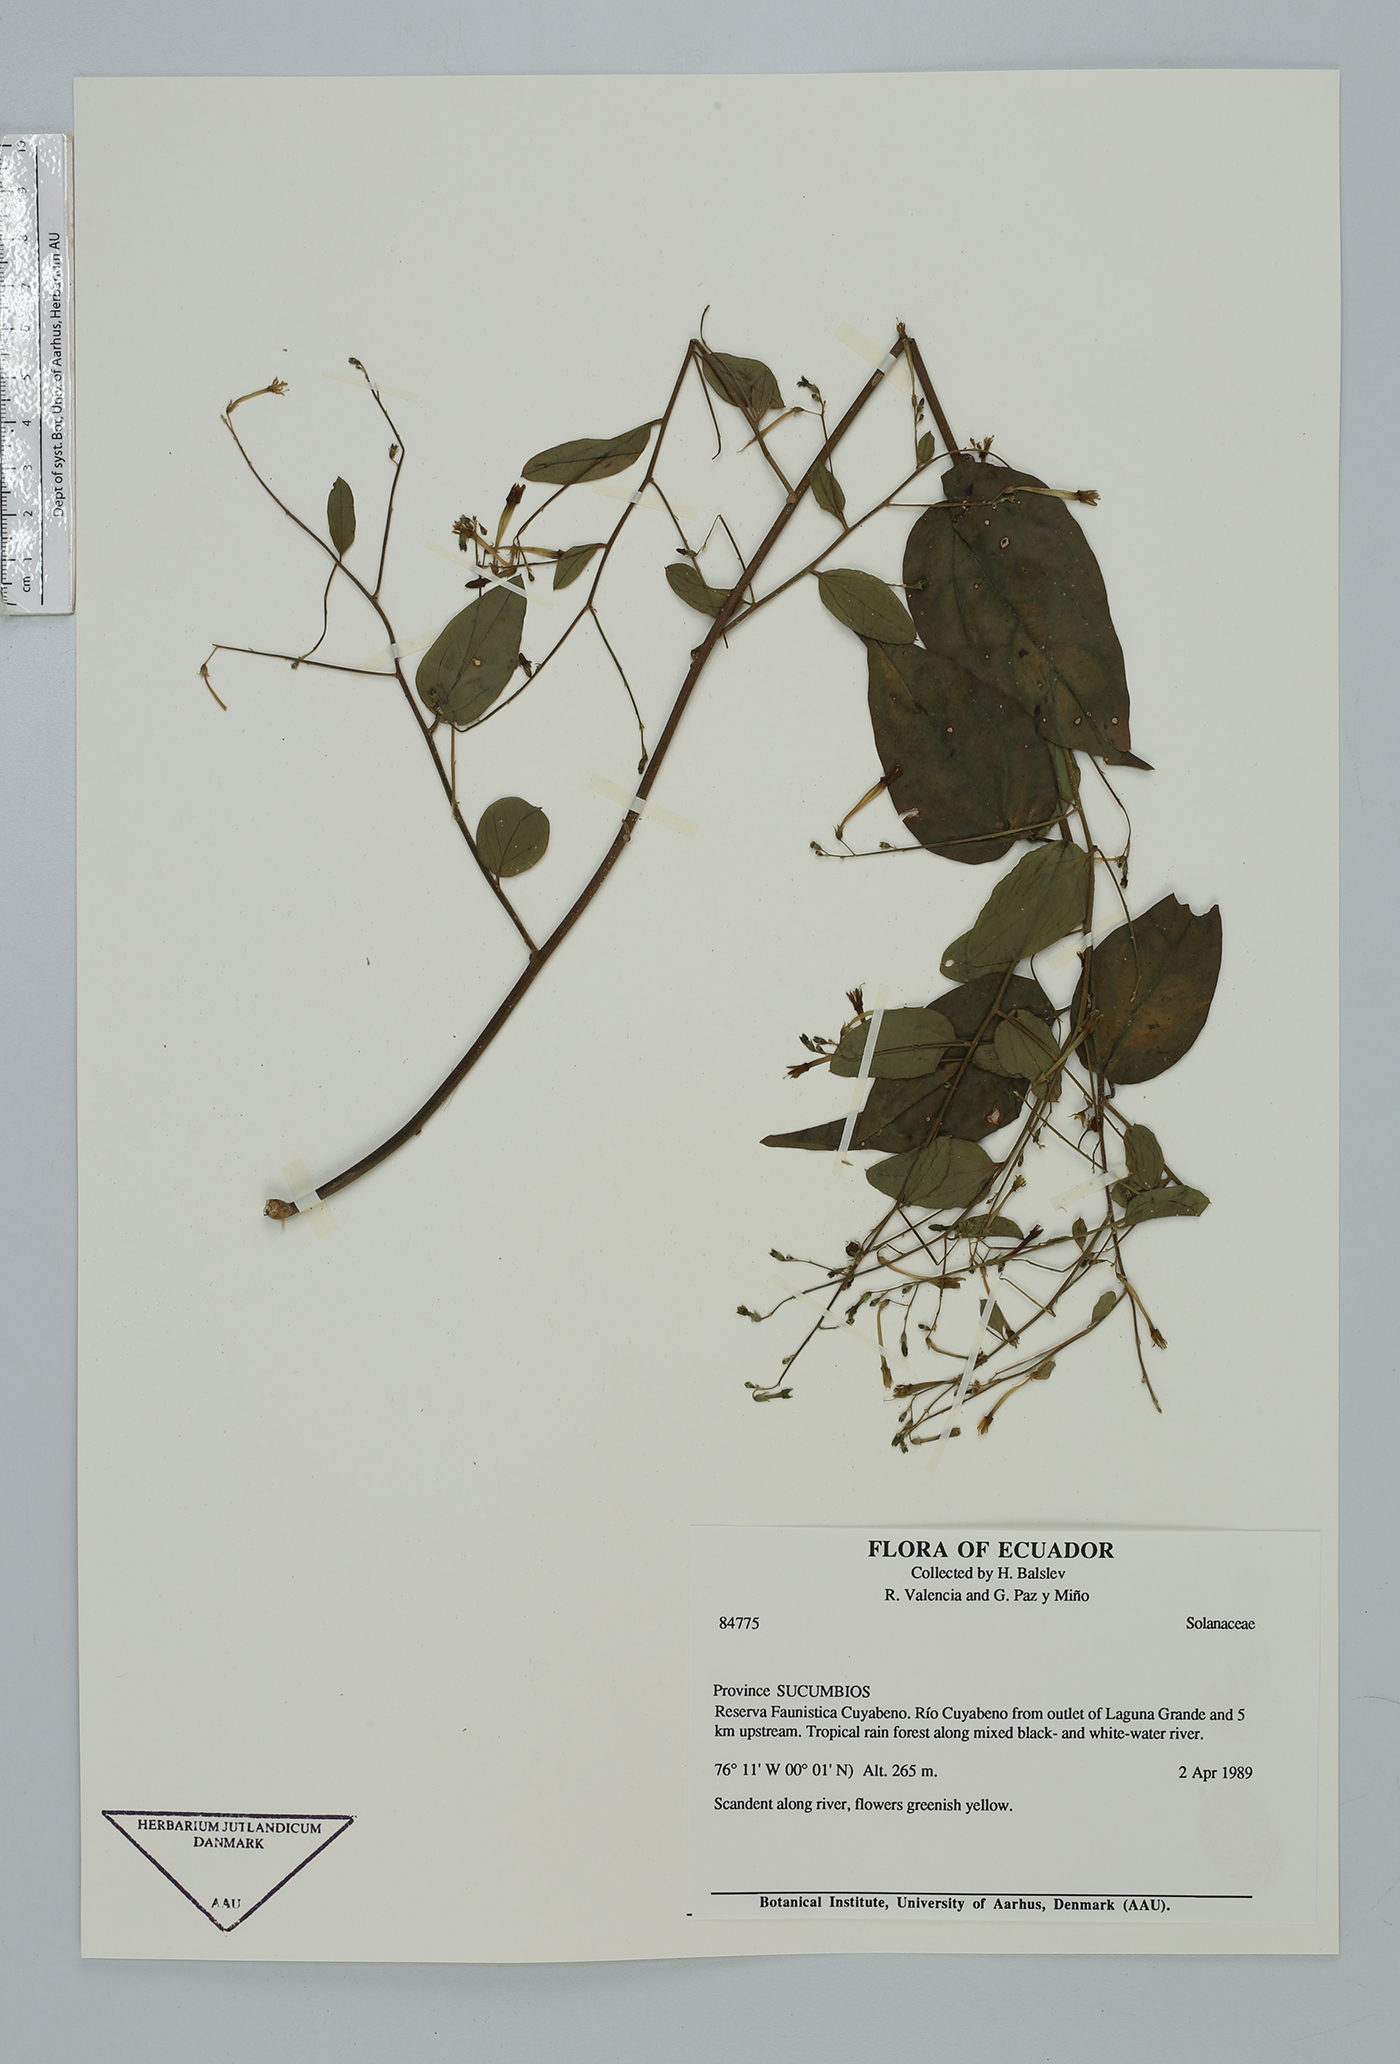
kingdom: Plantae
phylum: Tracheophyta
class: Magnoliopsida
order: Solanales
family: Solanaceae
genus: Cestrum
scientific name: Cestrum
